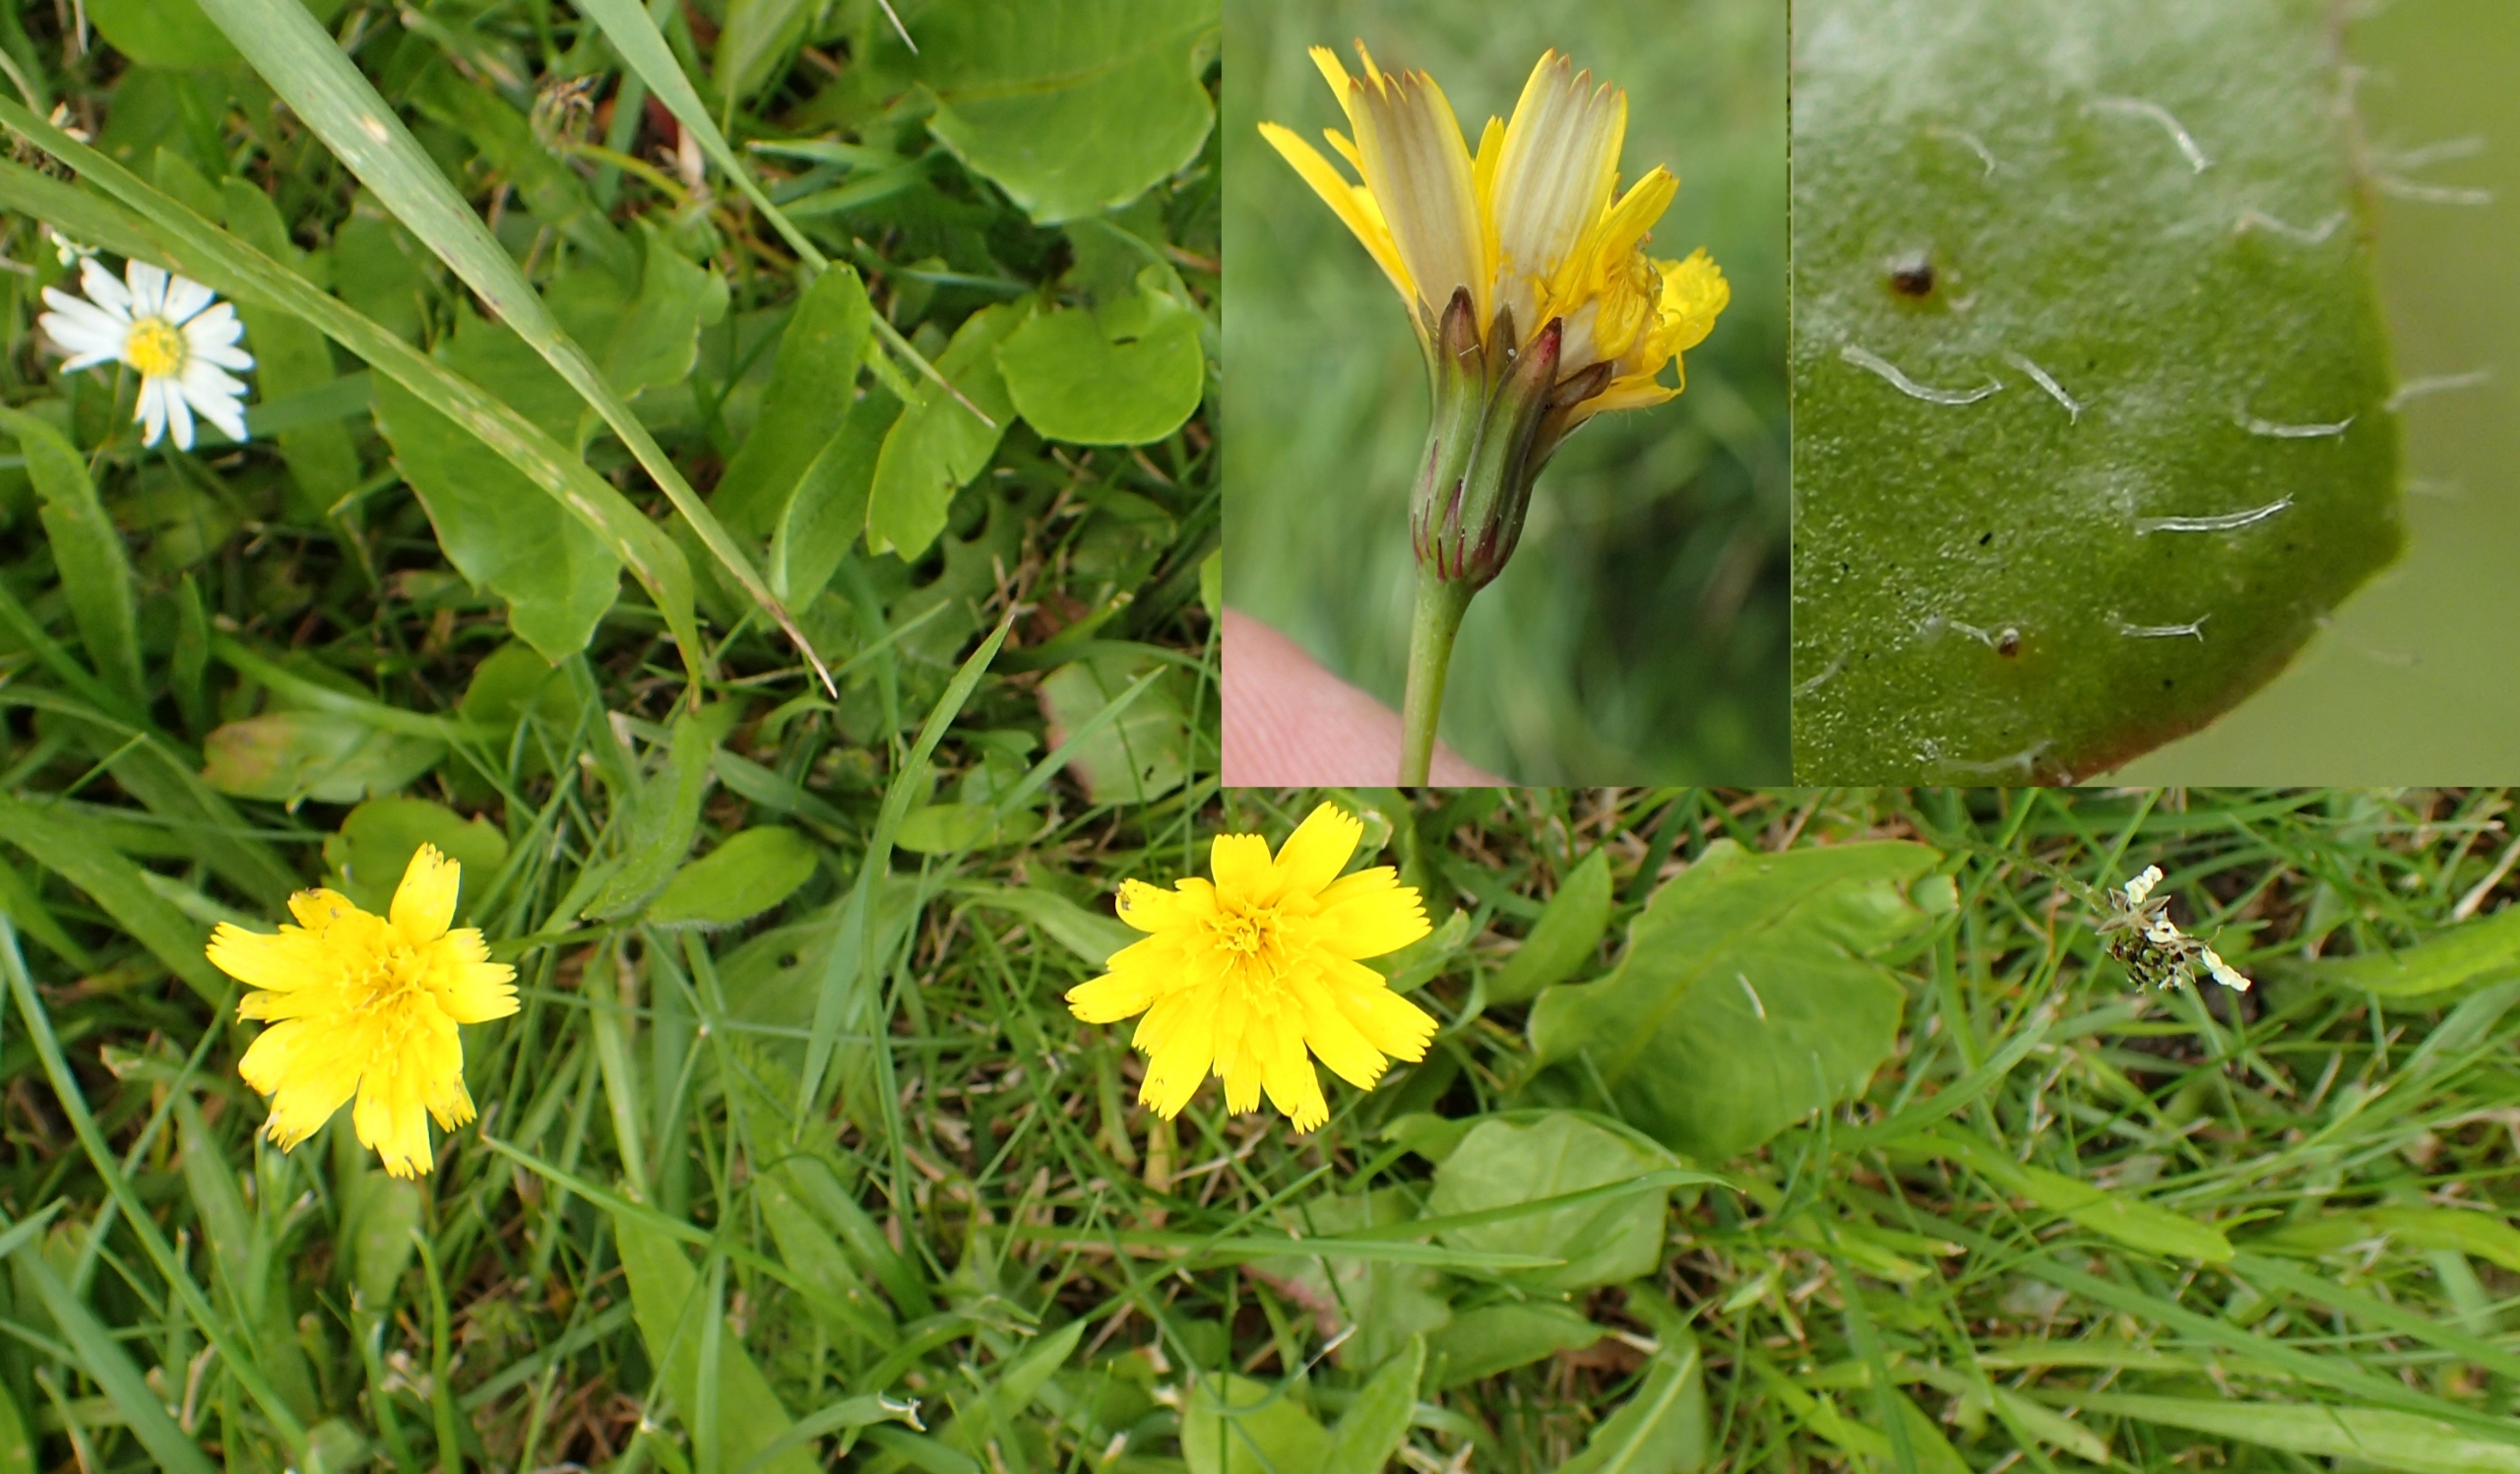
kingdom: Plantae
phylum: Tracheophyta
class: Magnoliopsida
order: Asterales
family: Asteraceae
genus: Thrincia
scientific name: Thrincia saxatilis
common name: Hundesalat
